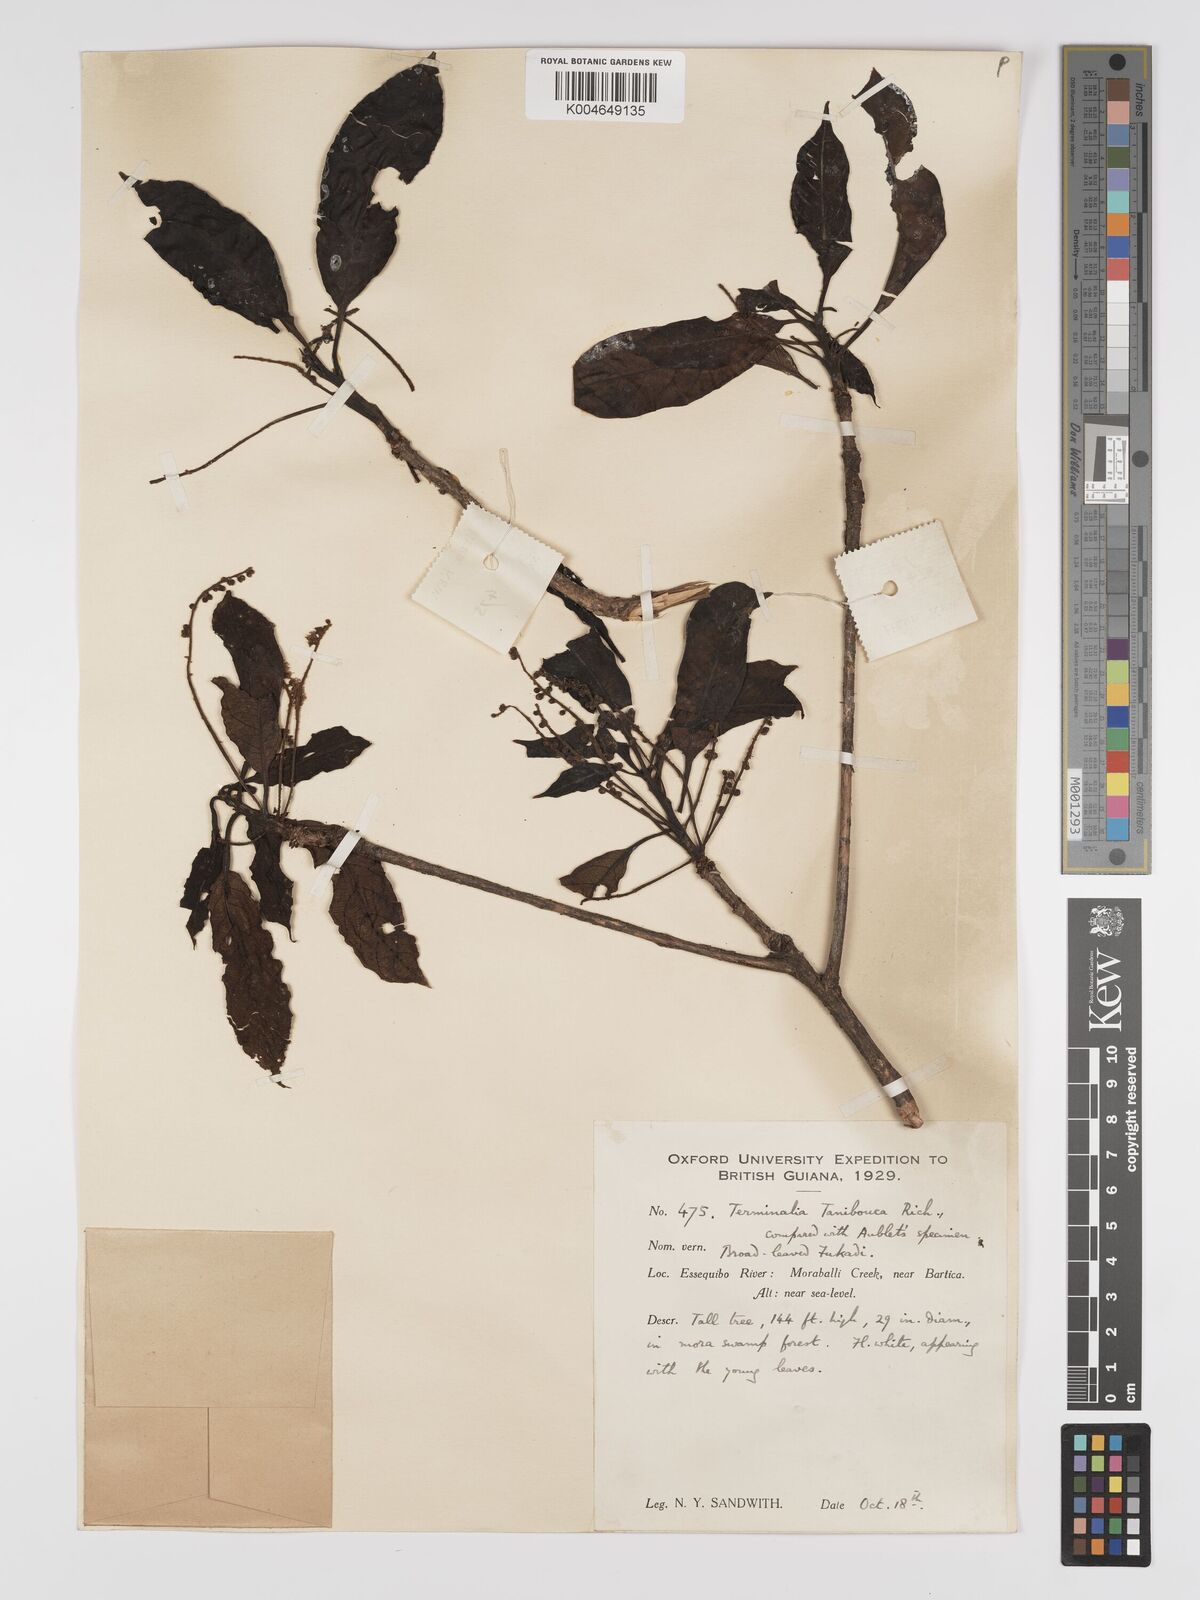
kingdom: Plantae
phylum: Tracheophyta
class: Magnoliopsida
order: Myrtales
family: Combretaceae
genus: Terminalia
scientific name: Terminalia dichotoma
